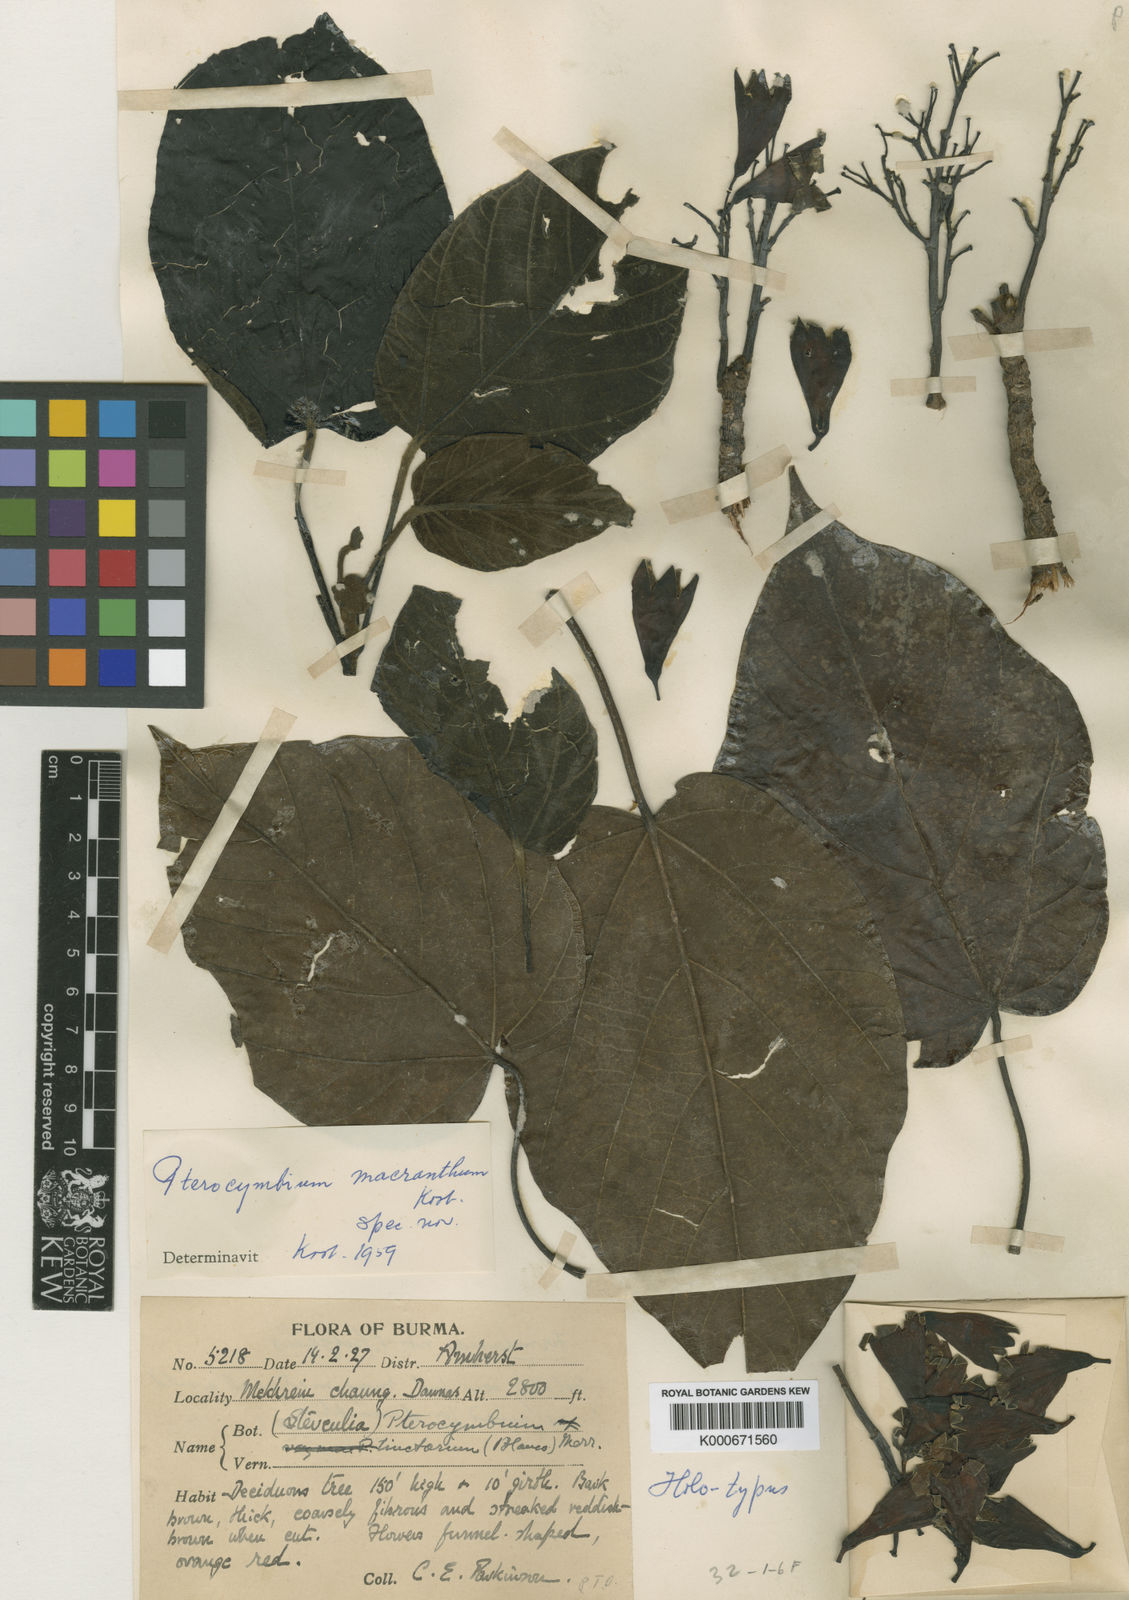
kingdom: Plantae
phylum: Tracheophyta
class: Magnoliopsida
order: Malvales
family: Malvaceae
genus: Pterocymbium
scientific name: Pterocymbium macranthum
